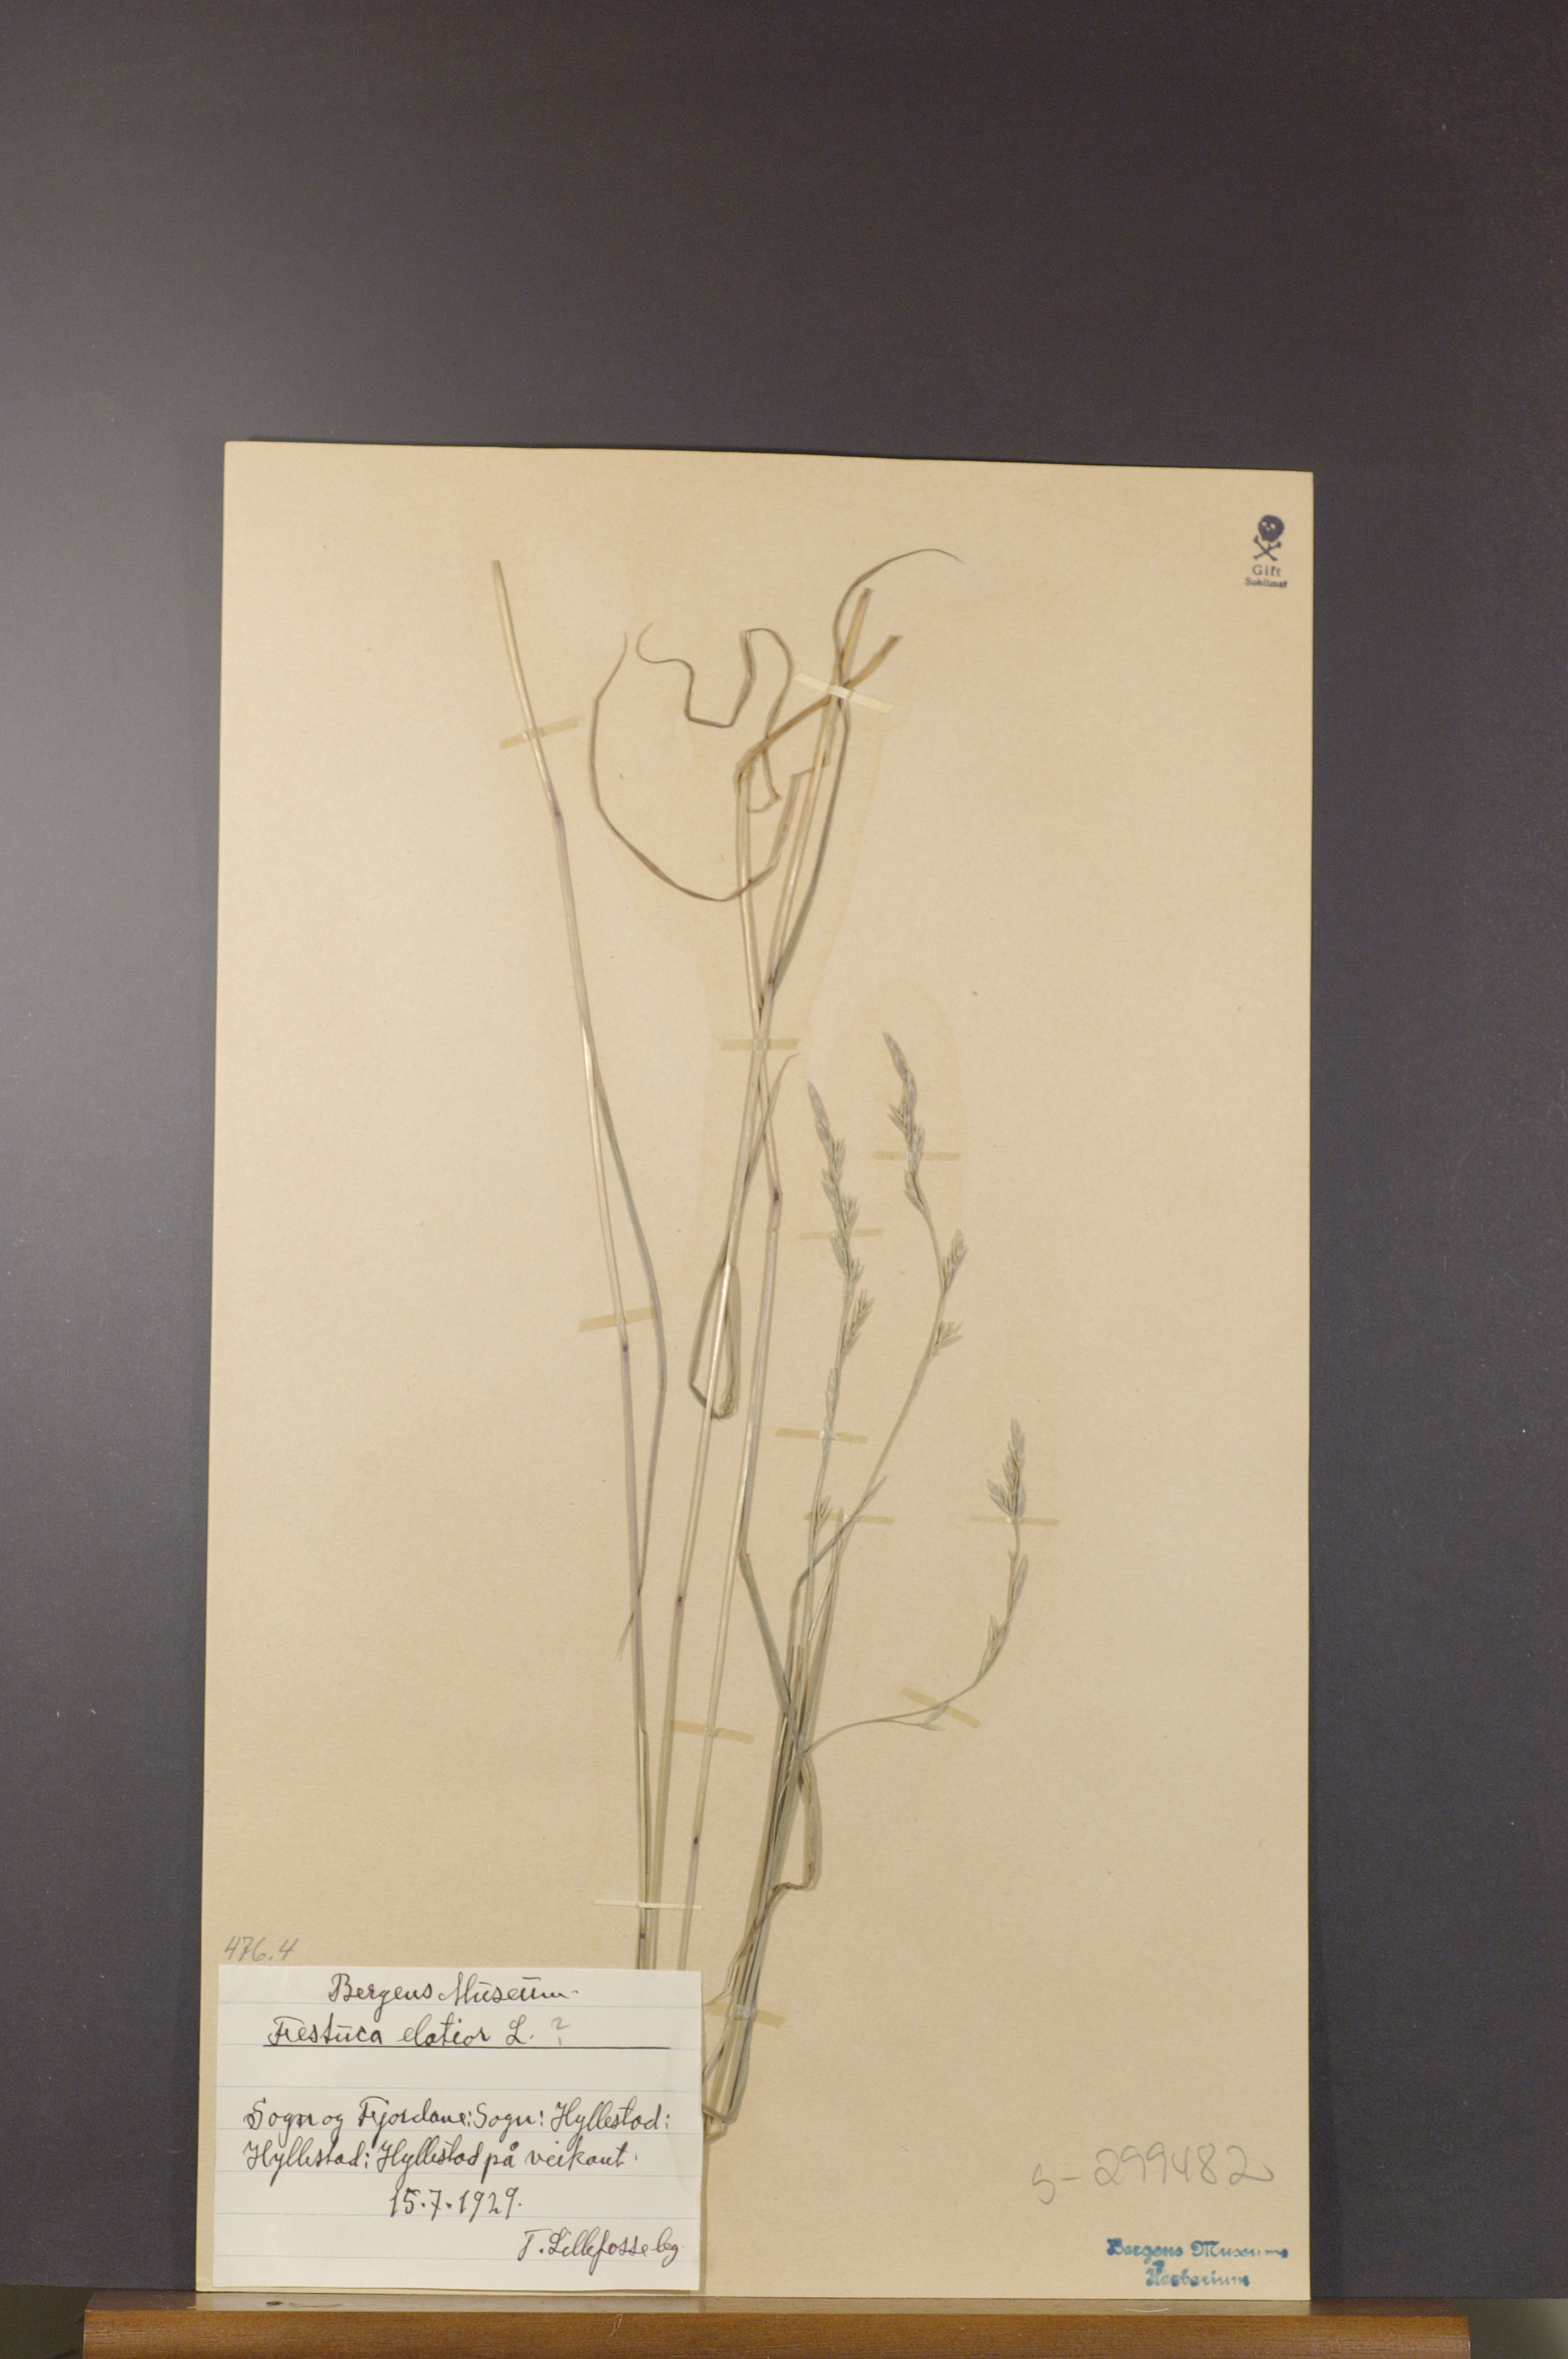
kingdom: Plantae
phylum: Tracheophyta
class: Liliopsida
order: Poales
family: Poaceae
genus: Lolium
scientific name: Lolium arundinaceum
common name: Reed fescue
